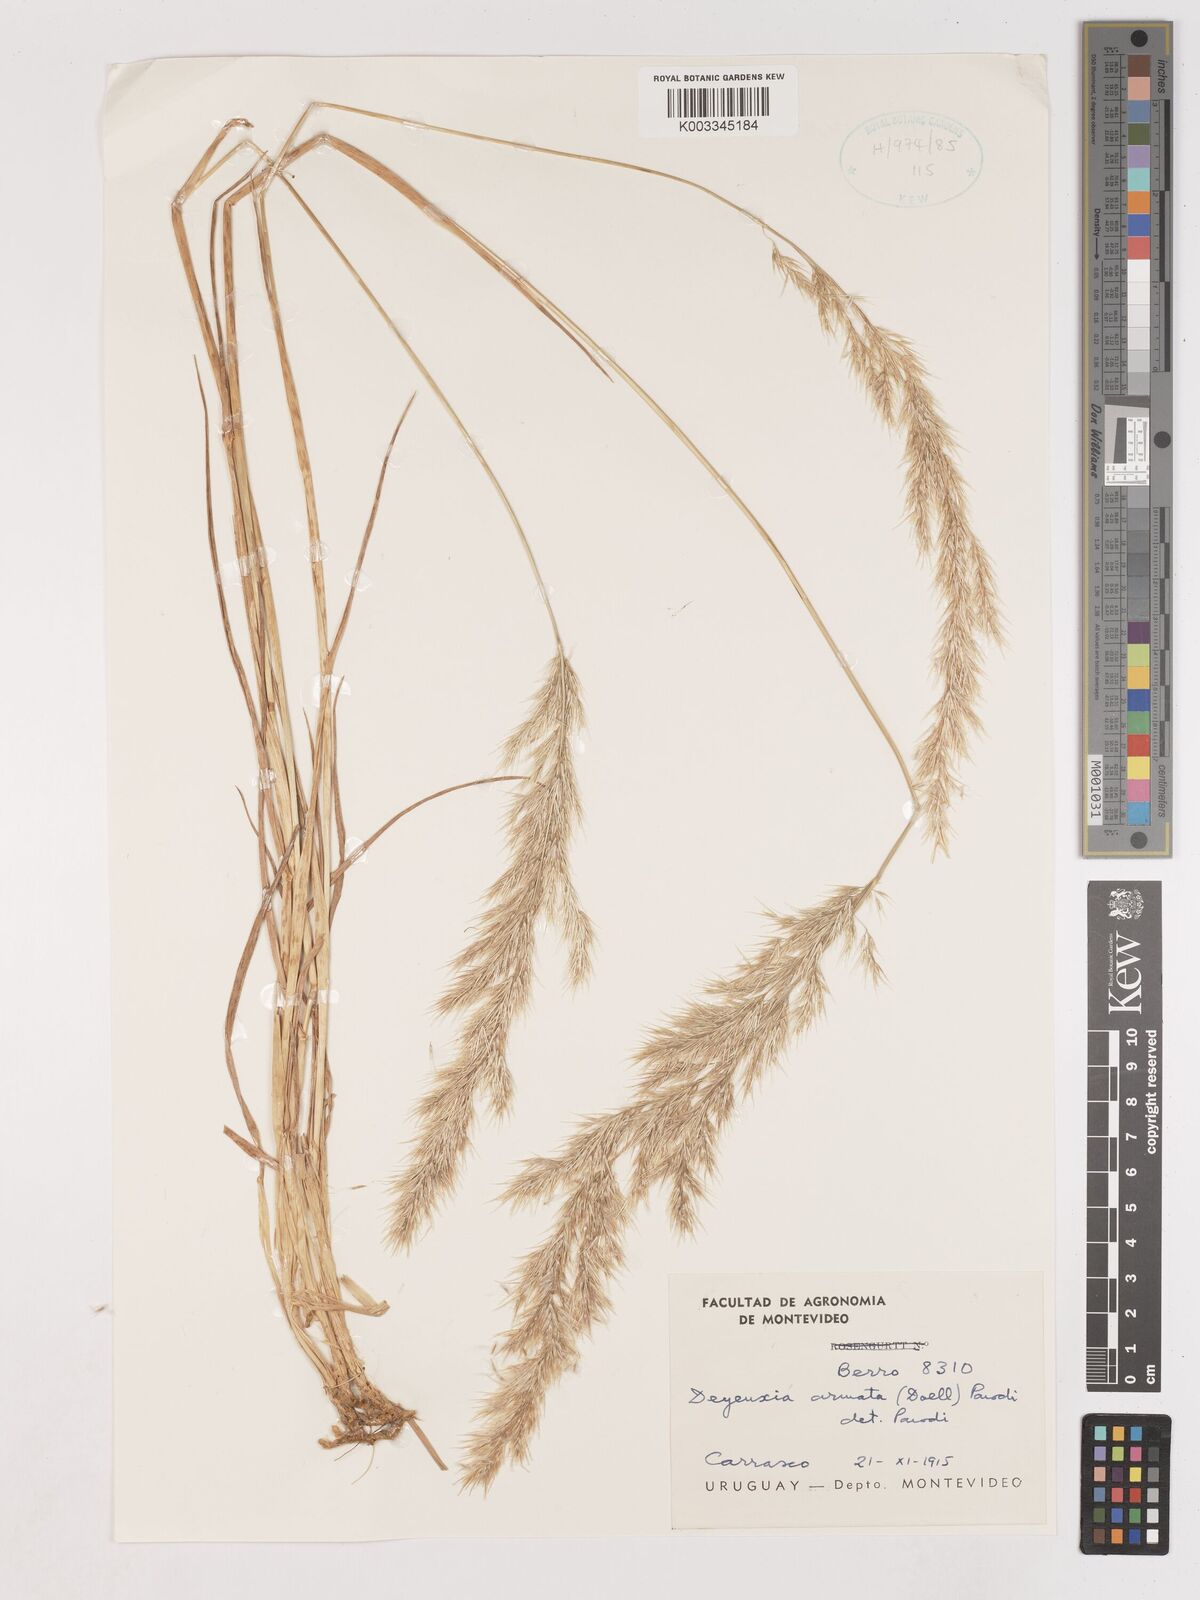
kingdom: Plantae
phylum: Tracheophyta
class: Liliopsida
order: Poales
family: Poaceae
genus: Cinnagrostis
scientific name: Cinnagrostis alba
